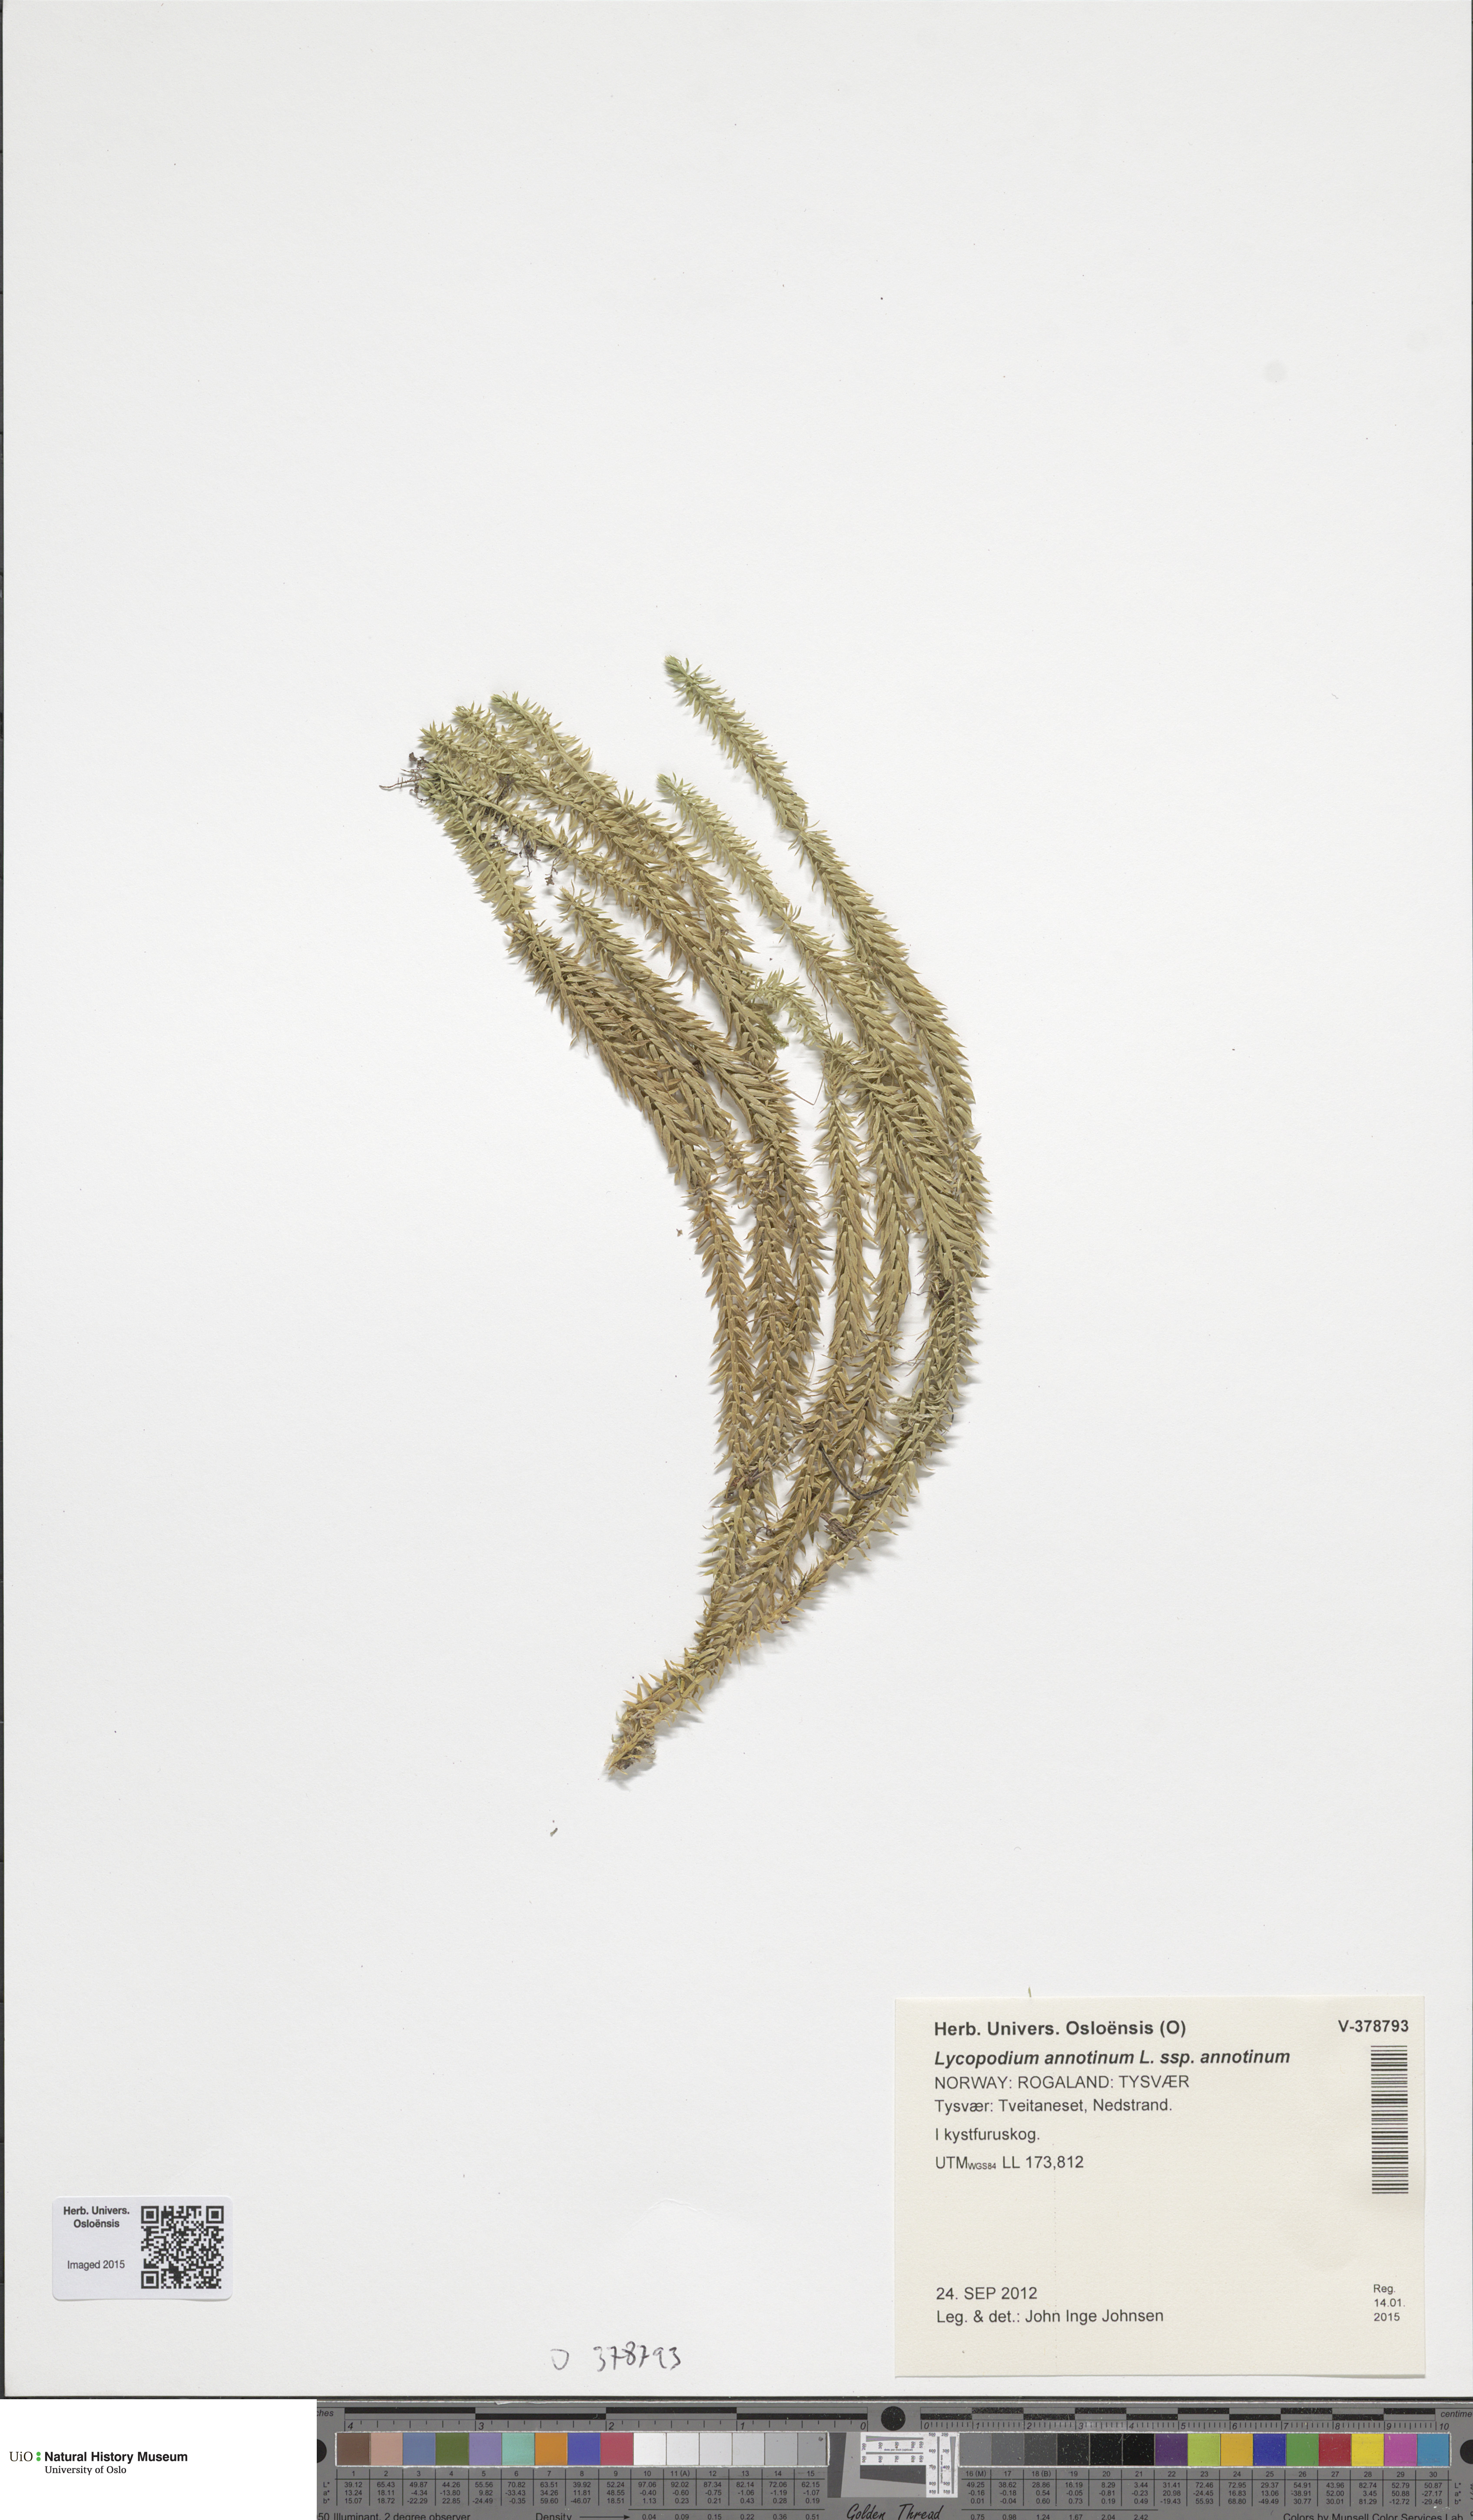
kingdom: Plantae
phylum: Tracheophyta
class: Lycopodiopsida
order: Lycopodiales
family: Lycopodiaceae
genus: Spinulum
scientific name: Spinulum annotinum
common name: Interrupted club-moss
